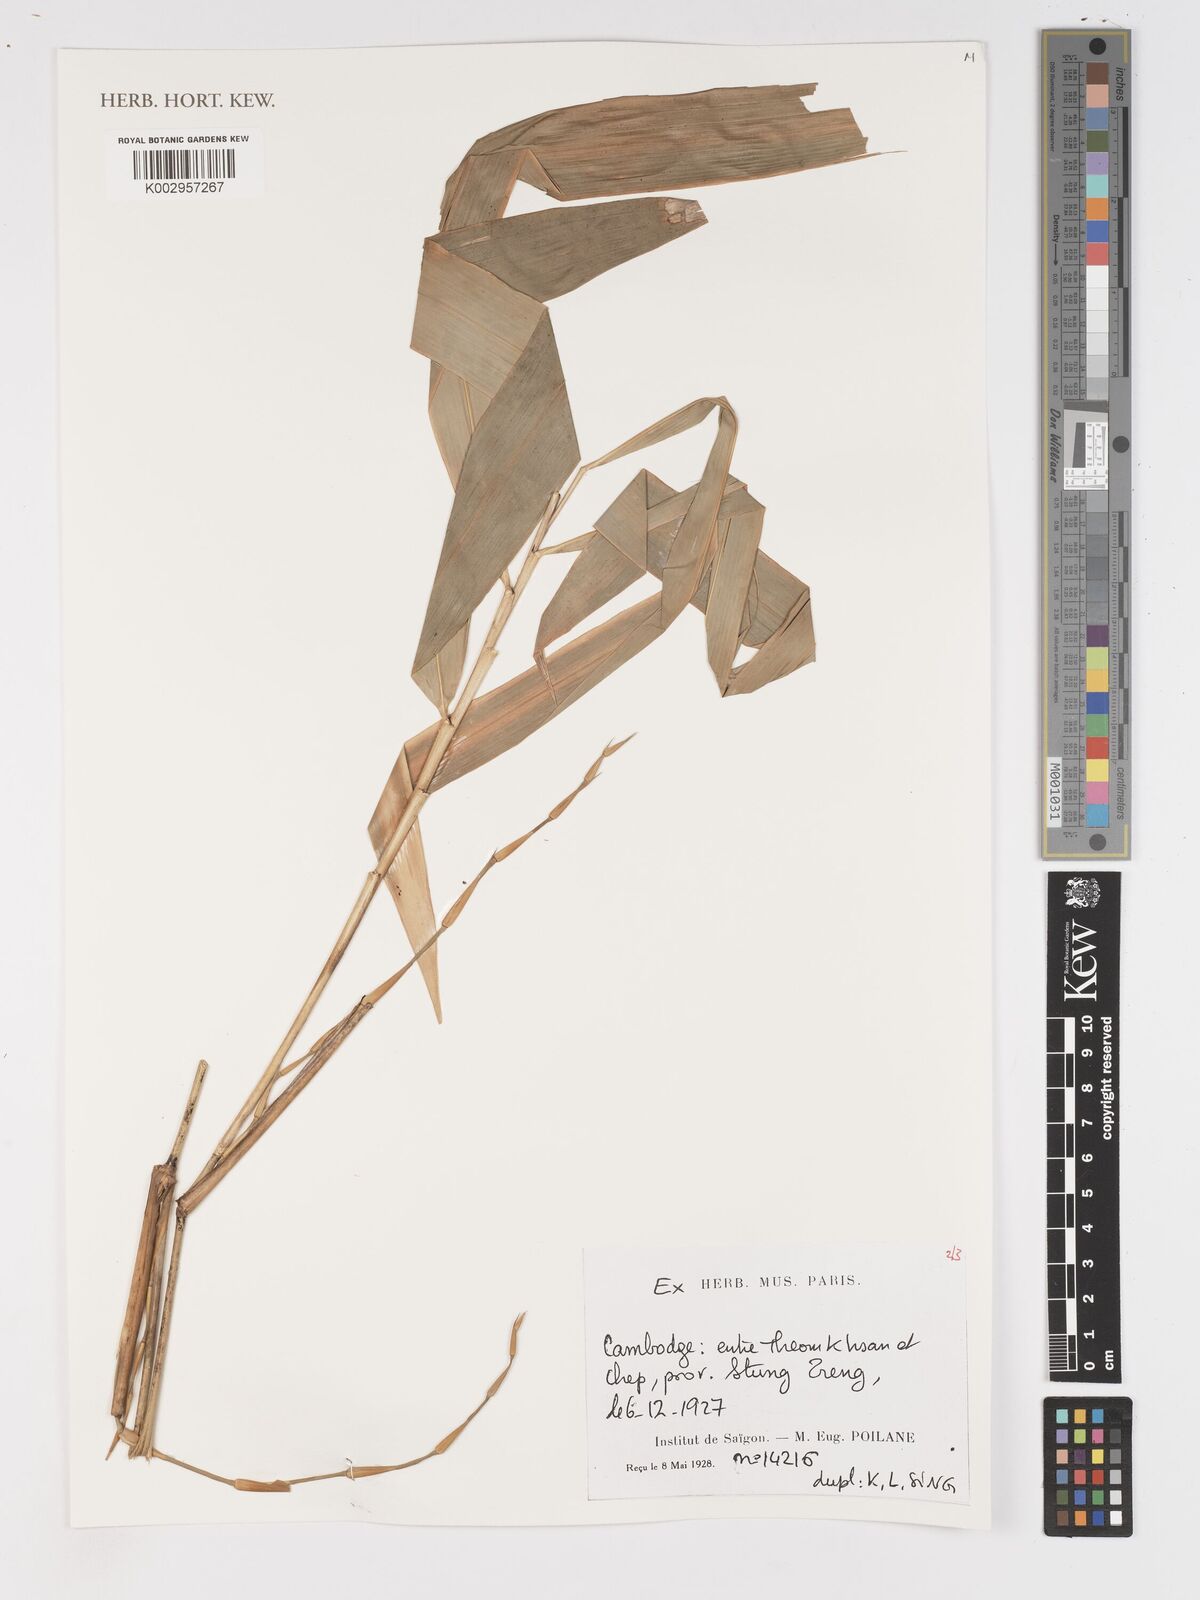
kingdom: Plantae
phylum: Tracheophyta
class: Liliopsida
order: Poales
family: Poaceae
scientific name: Poaceae
